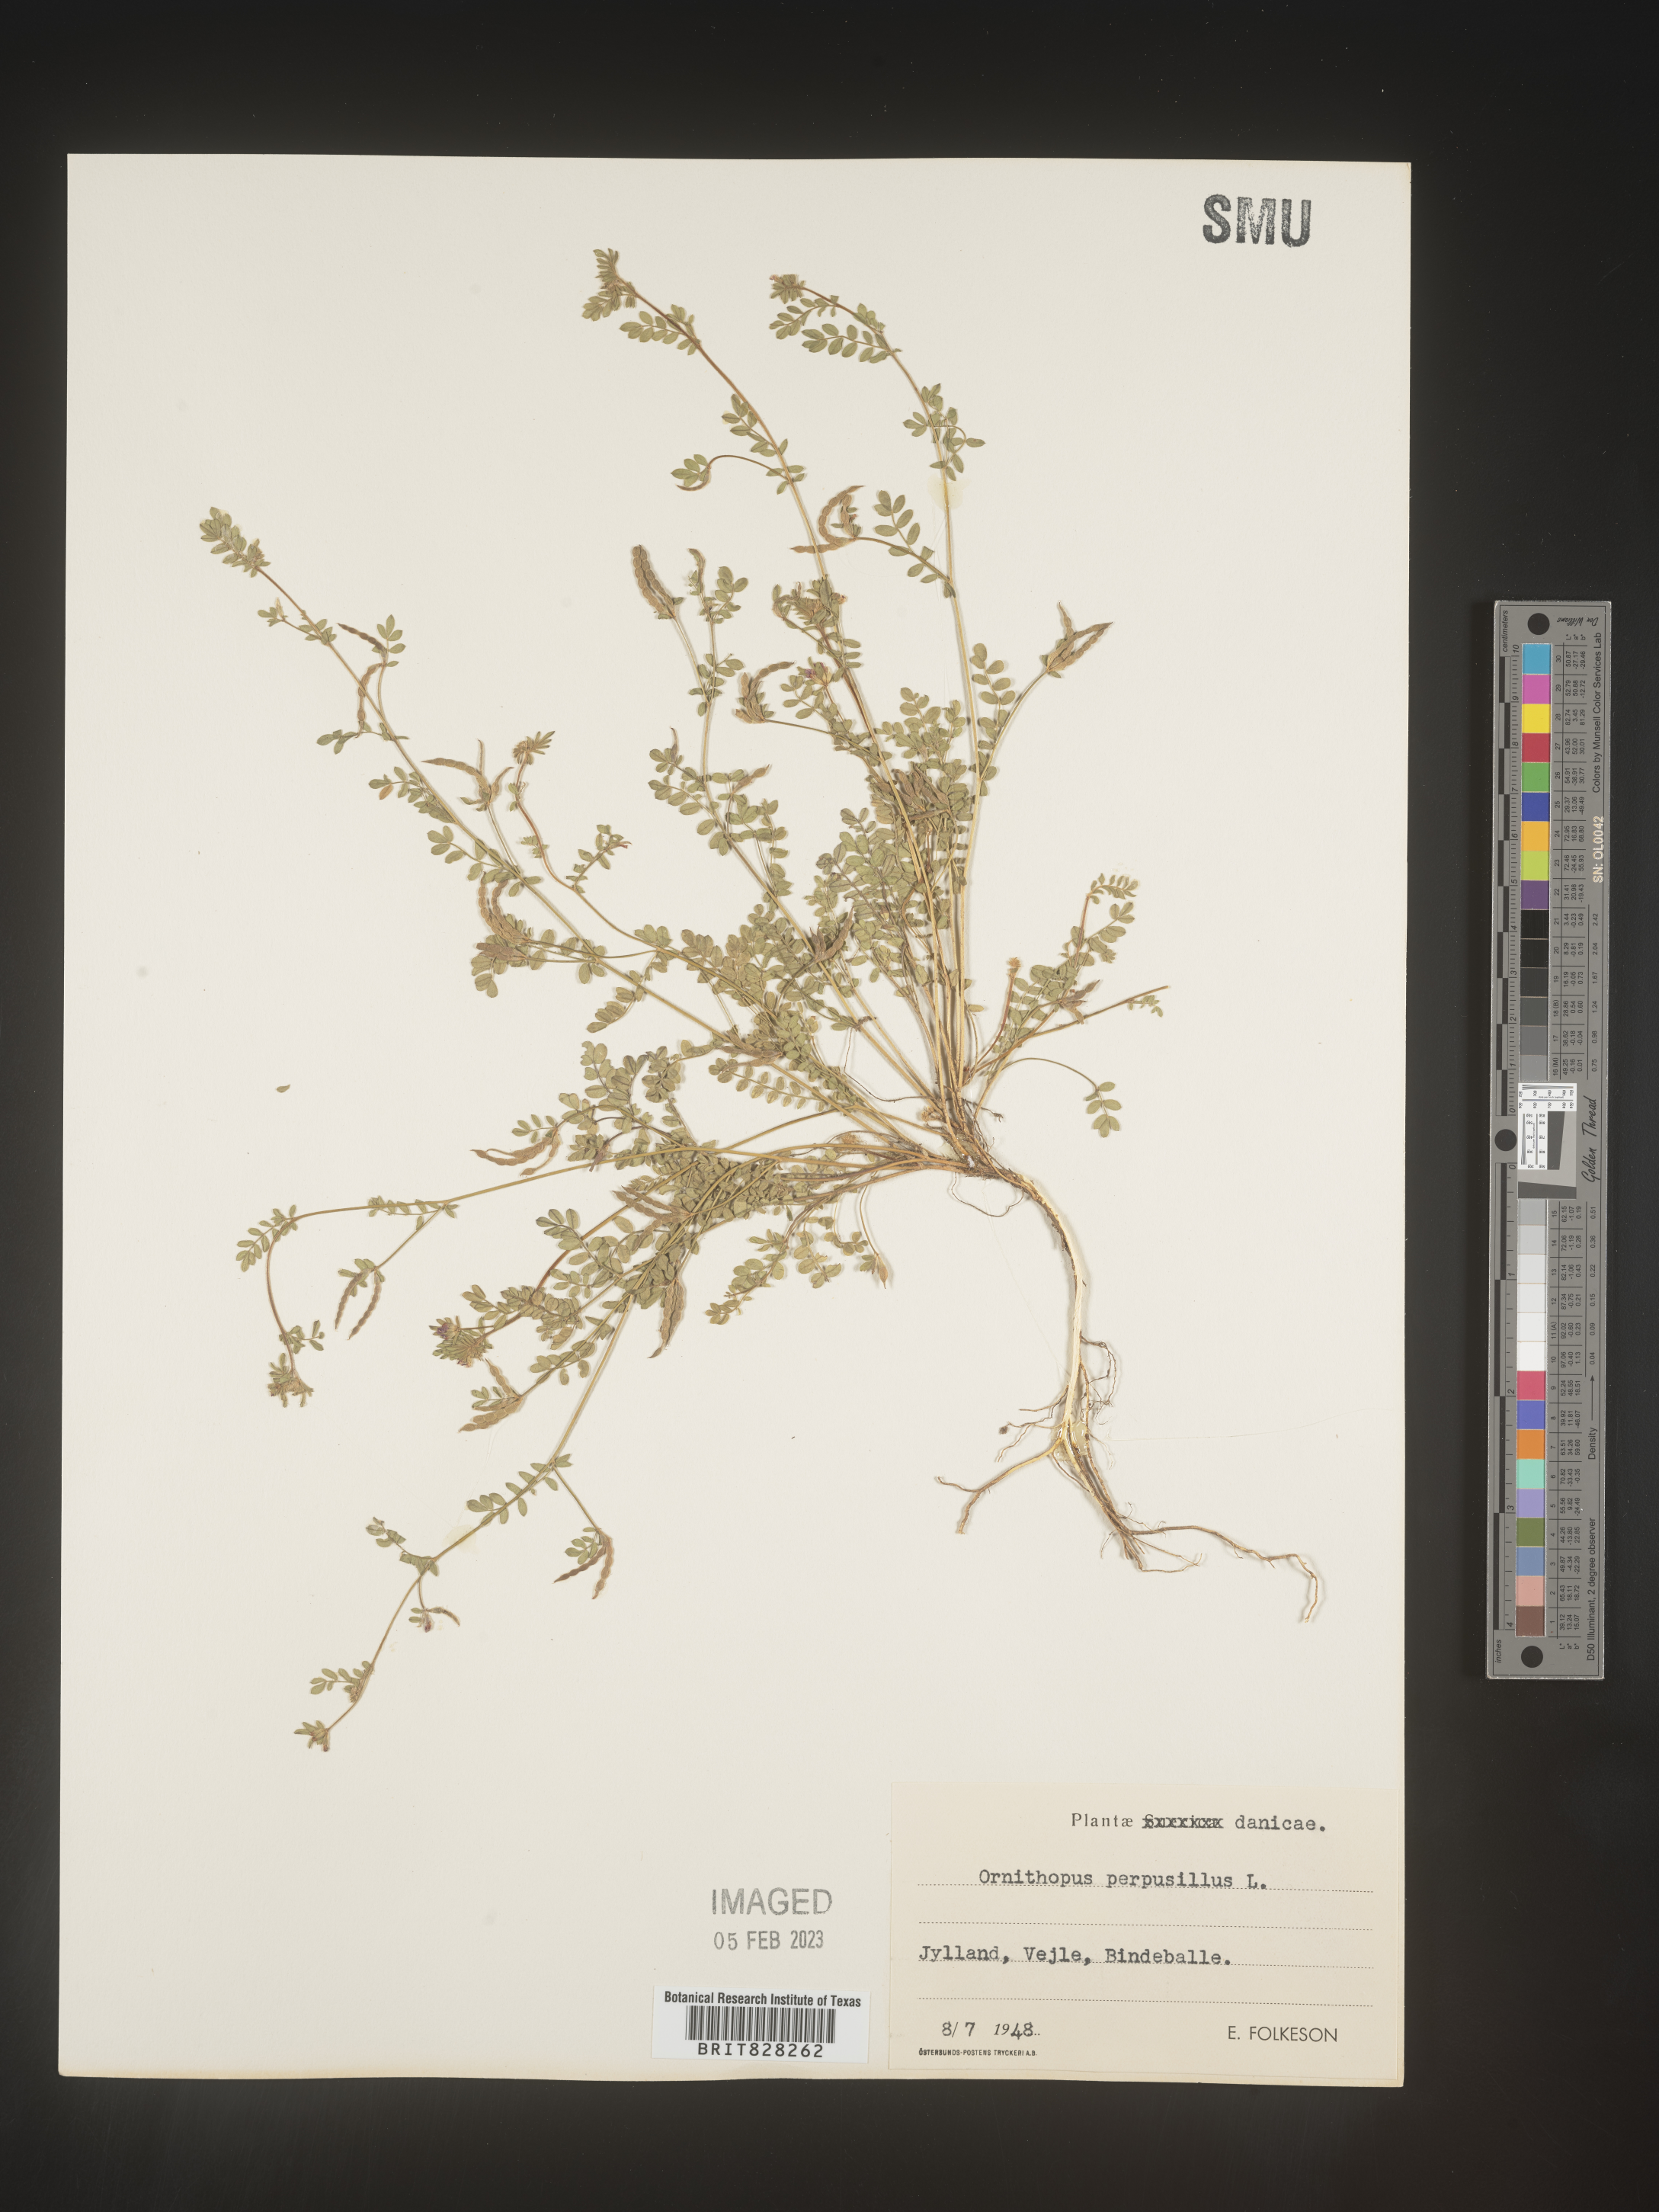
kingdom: Plantae
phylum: Tracheophyta
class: Magnoliopsida
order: Fabales
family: Fabaceae
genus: Ornithopus
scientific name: Ornithopus
